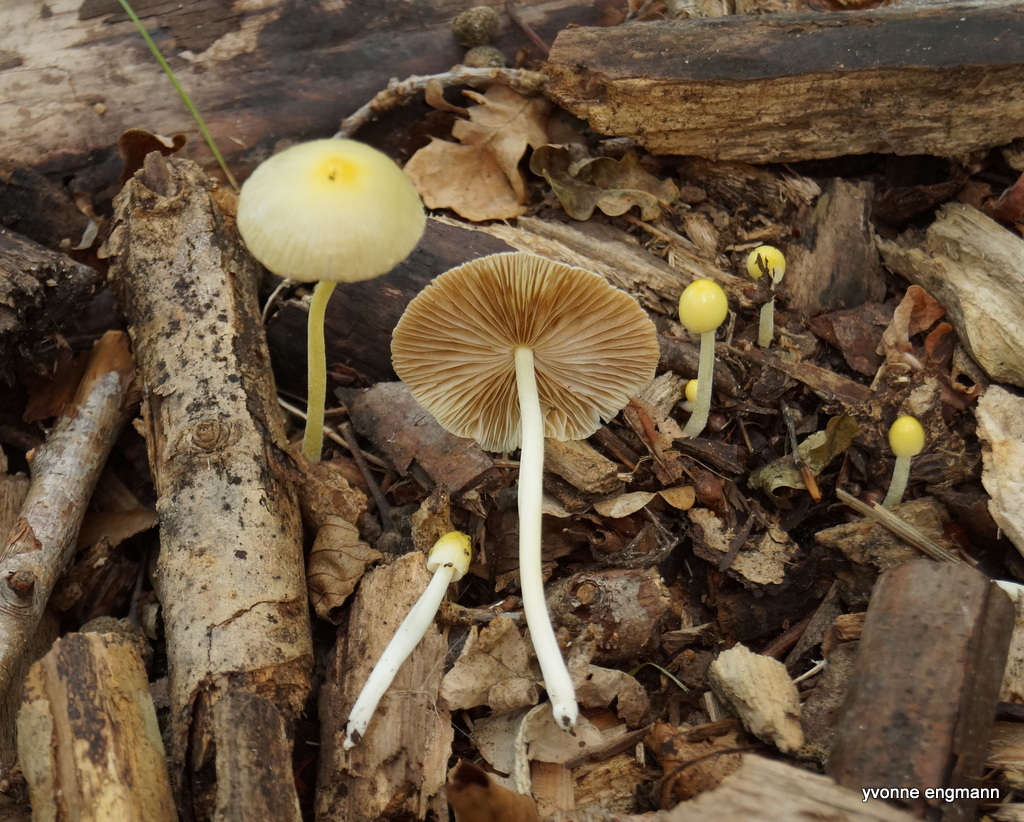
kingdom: Fungi
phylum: Basidiomycota
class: Agaricomycetes
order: Agaricales
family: Bolbitiaceae
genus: Bolbitius
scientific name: Bolbitius titubans
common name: almindelig gulhat
